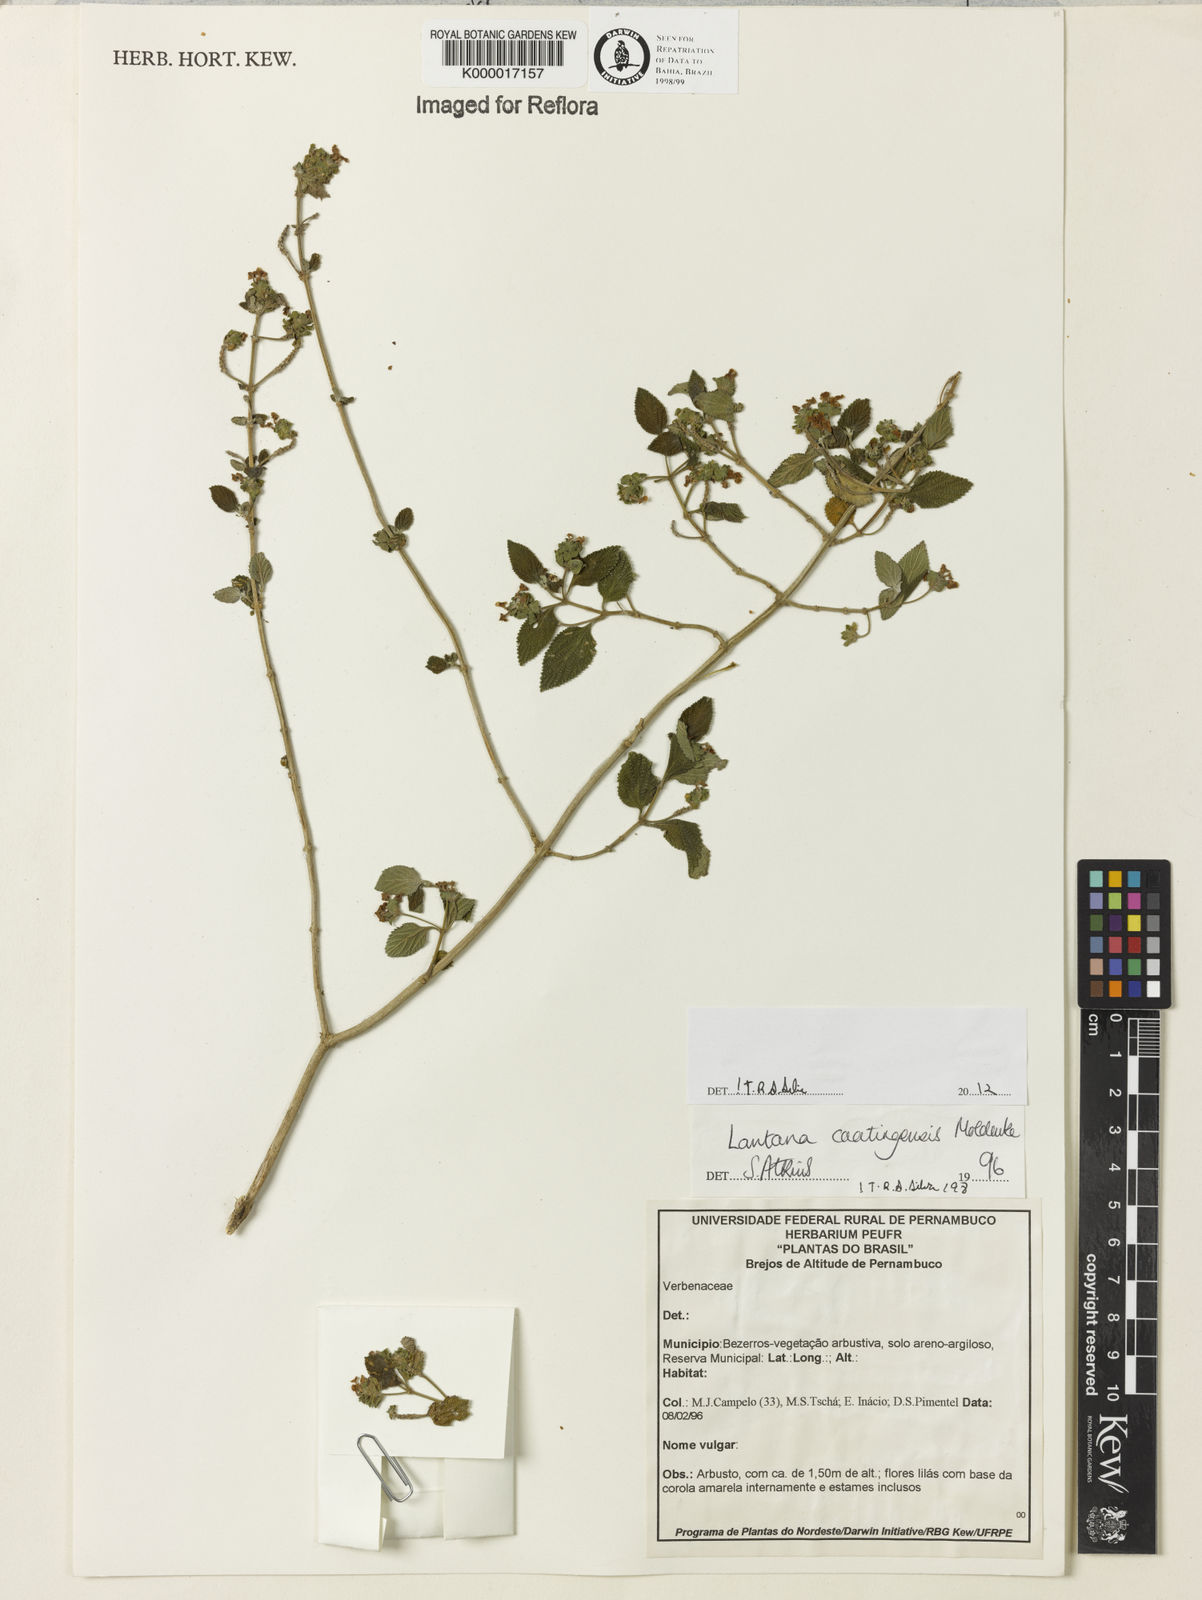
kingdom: Plantae
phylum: Tracheophyta
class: Magnoliopsida
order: Lamiales
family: Verbenaceae
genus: Lantana
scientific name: Lantana caatingensis
